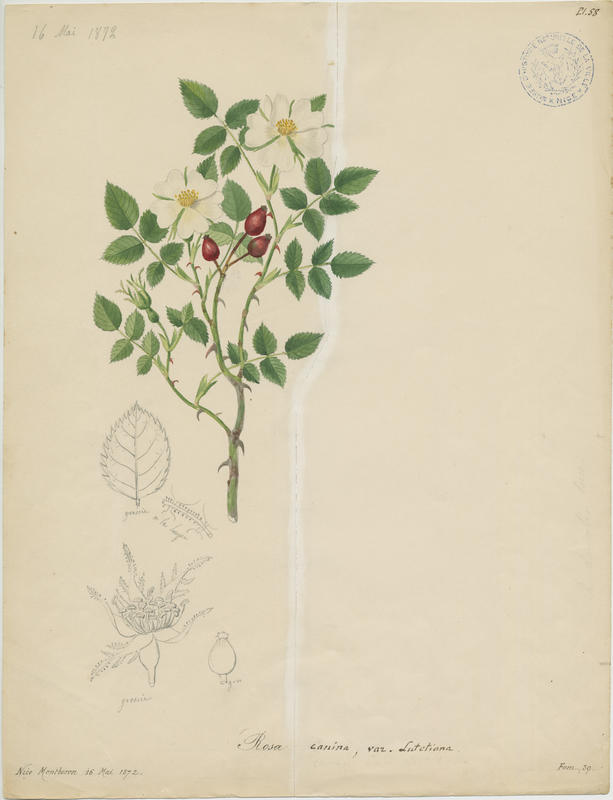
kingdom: Plantae
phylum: Tracheophyta
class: Magnoliopsida
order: Rosales
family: Rosaceae
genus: Rosa
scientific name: Rosa canina
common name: Dog rose
